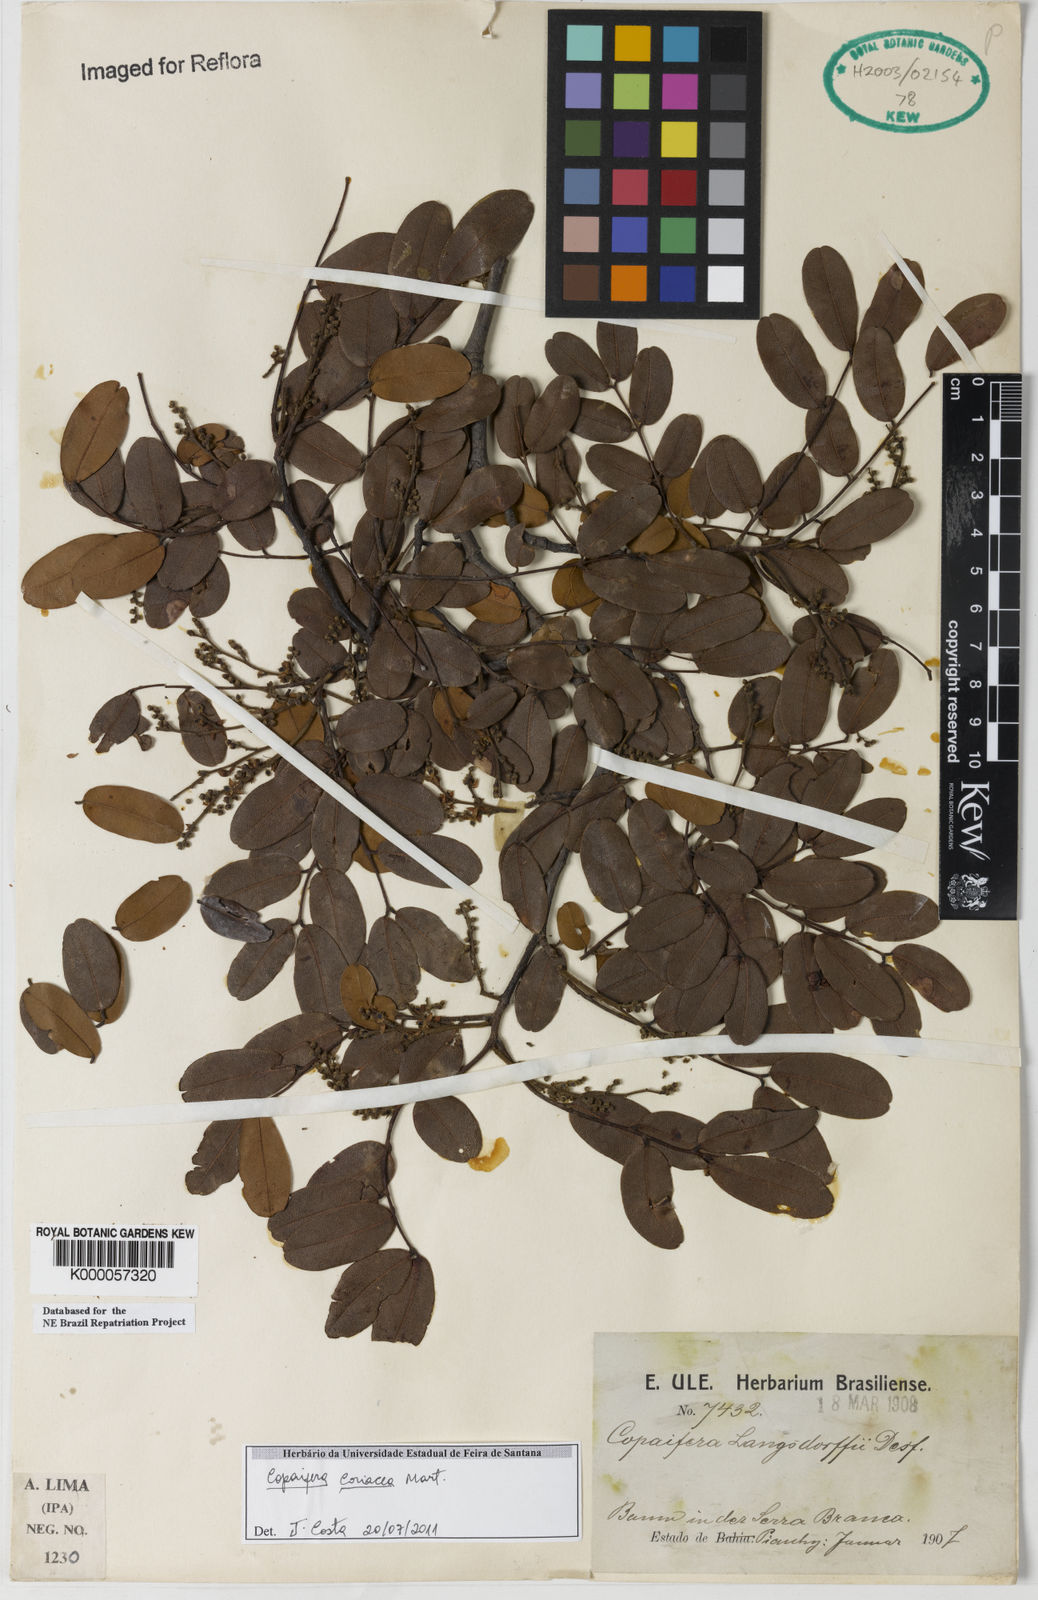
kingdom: Plantae
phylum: Tracheophyta
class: Magnoliopsida
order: Fabales
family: Fabaceae
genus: Copaifera
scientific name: Copaifera coriacea
